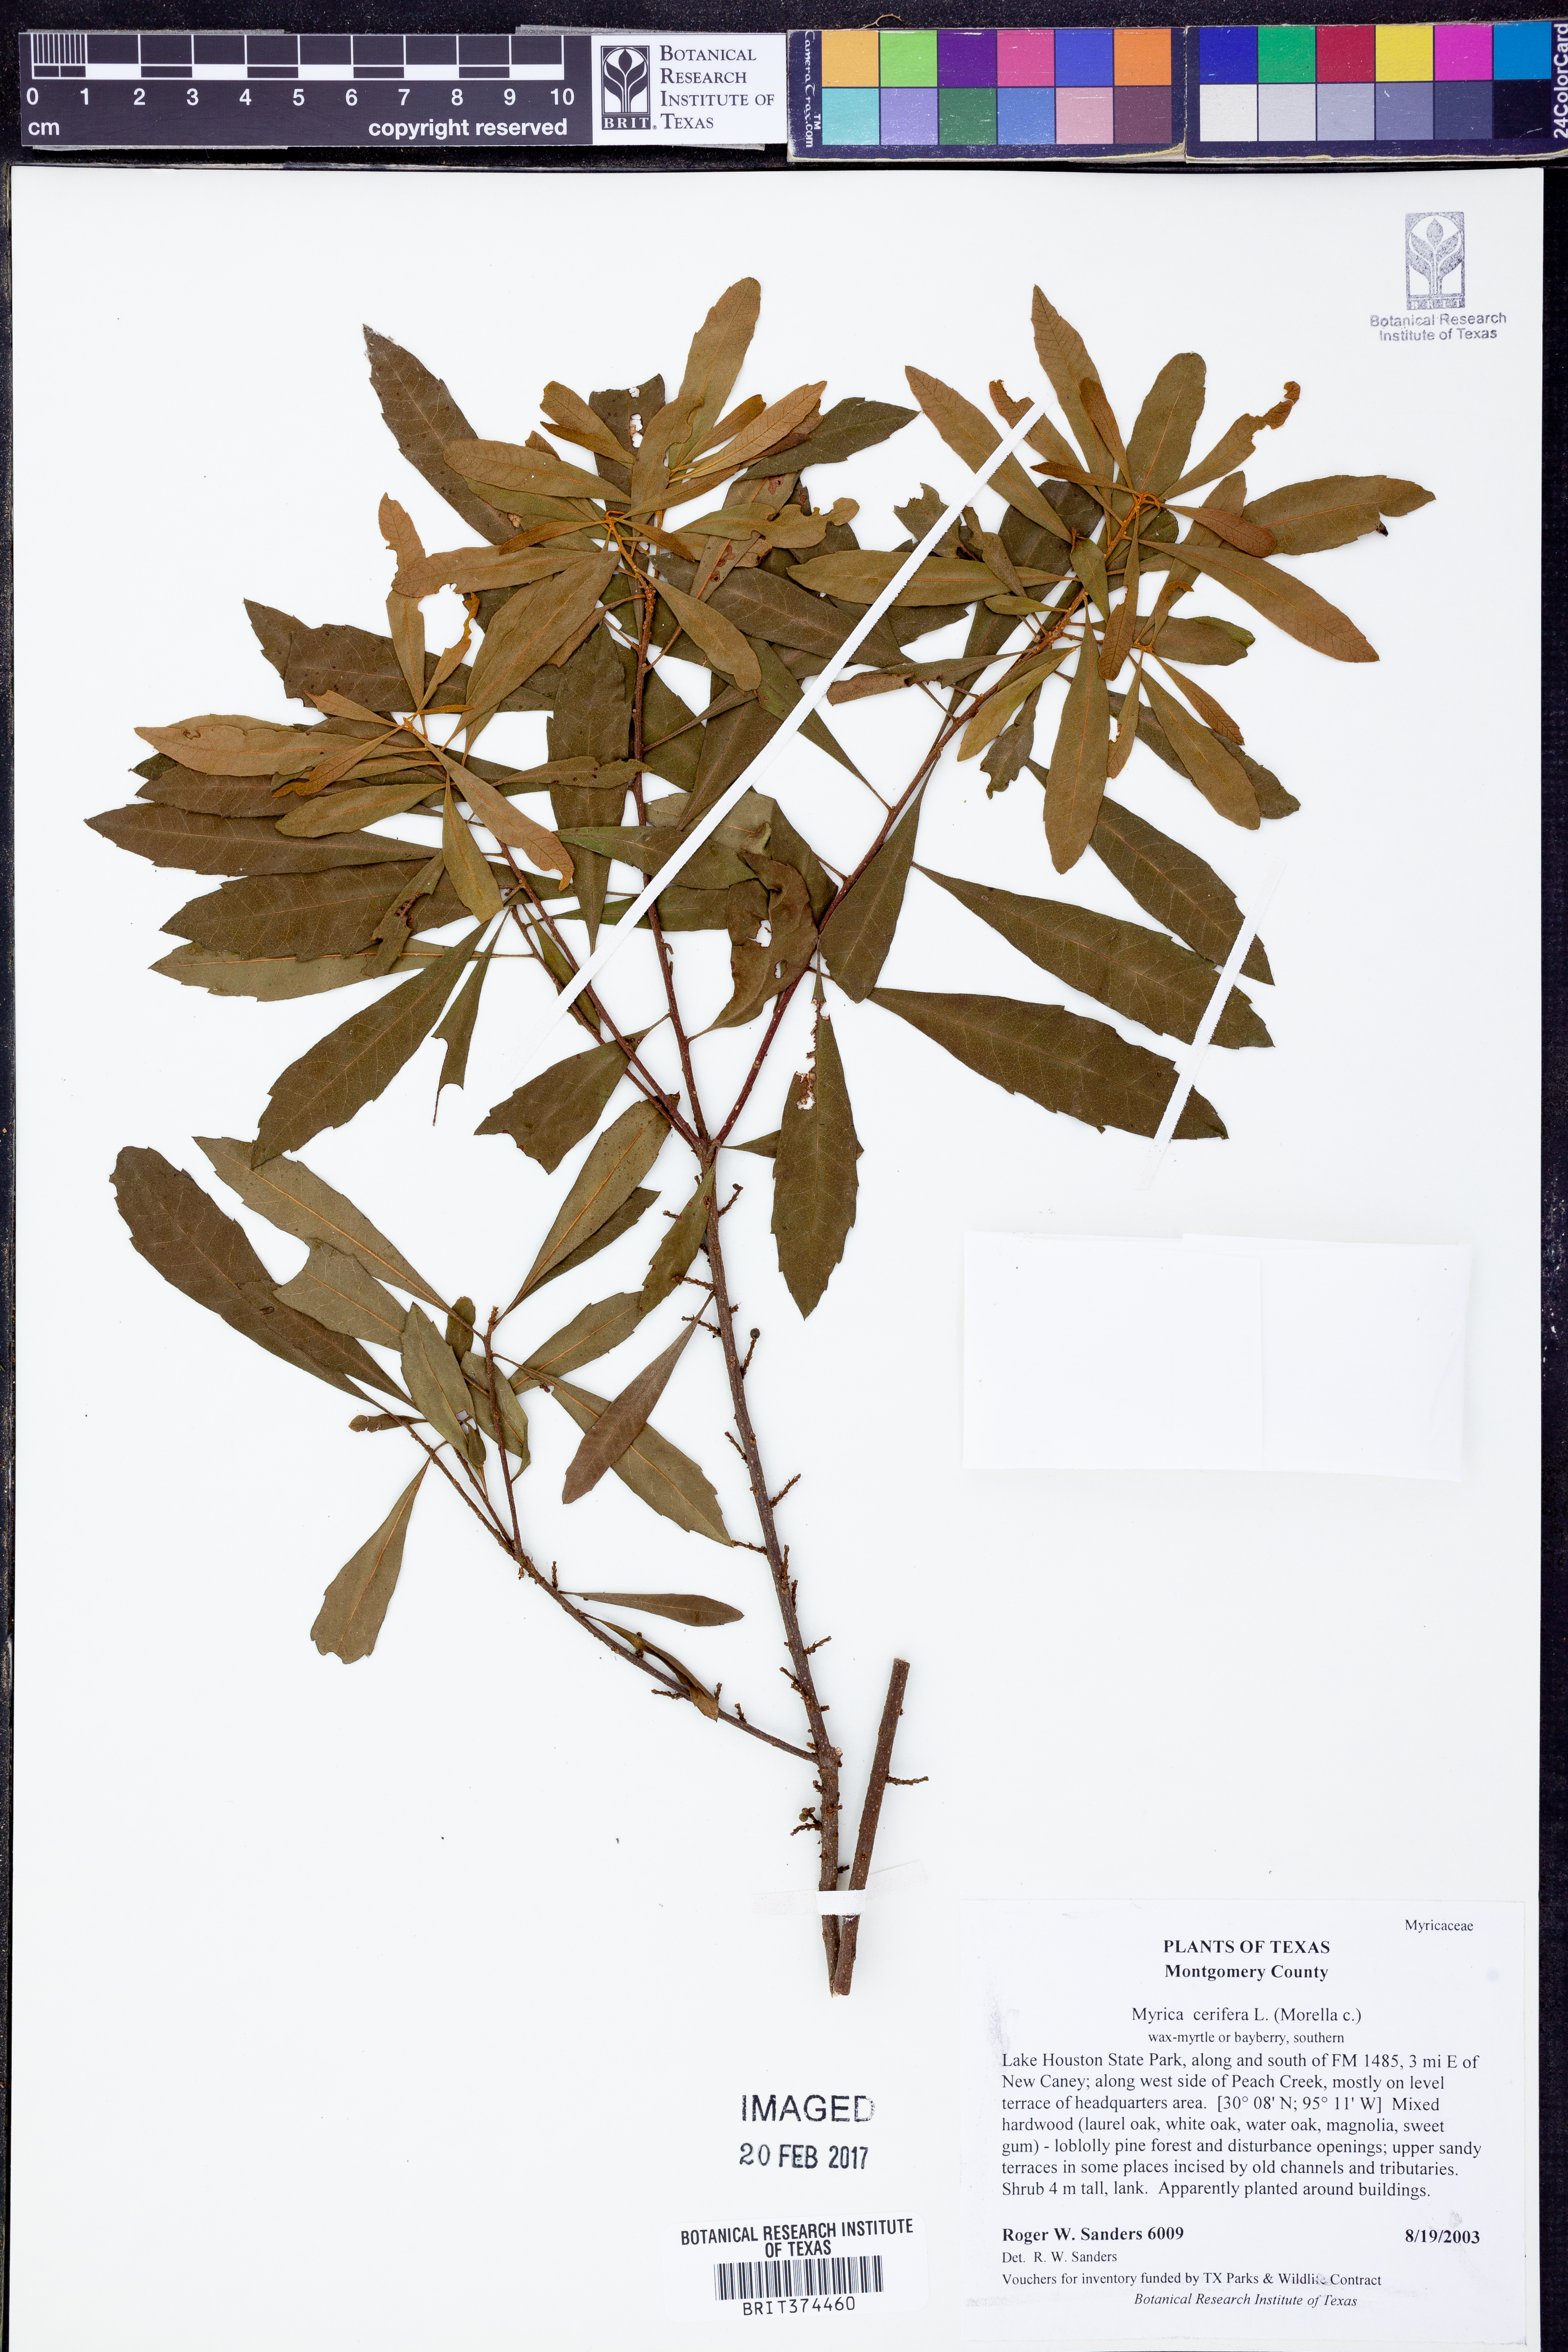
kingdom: Plantae
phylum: Tracheophyta
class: Magnoliopsida
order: Fagales
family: Myricaceae
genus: Morella
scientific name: Morella cerifera
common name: Wax myrtle
